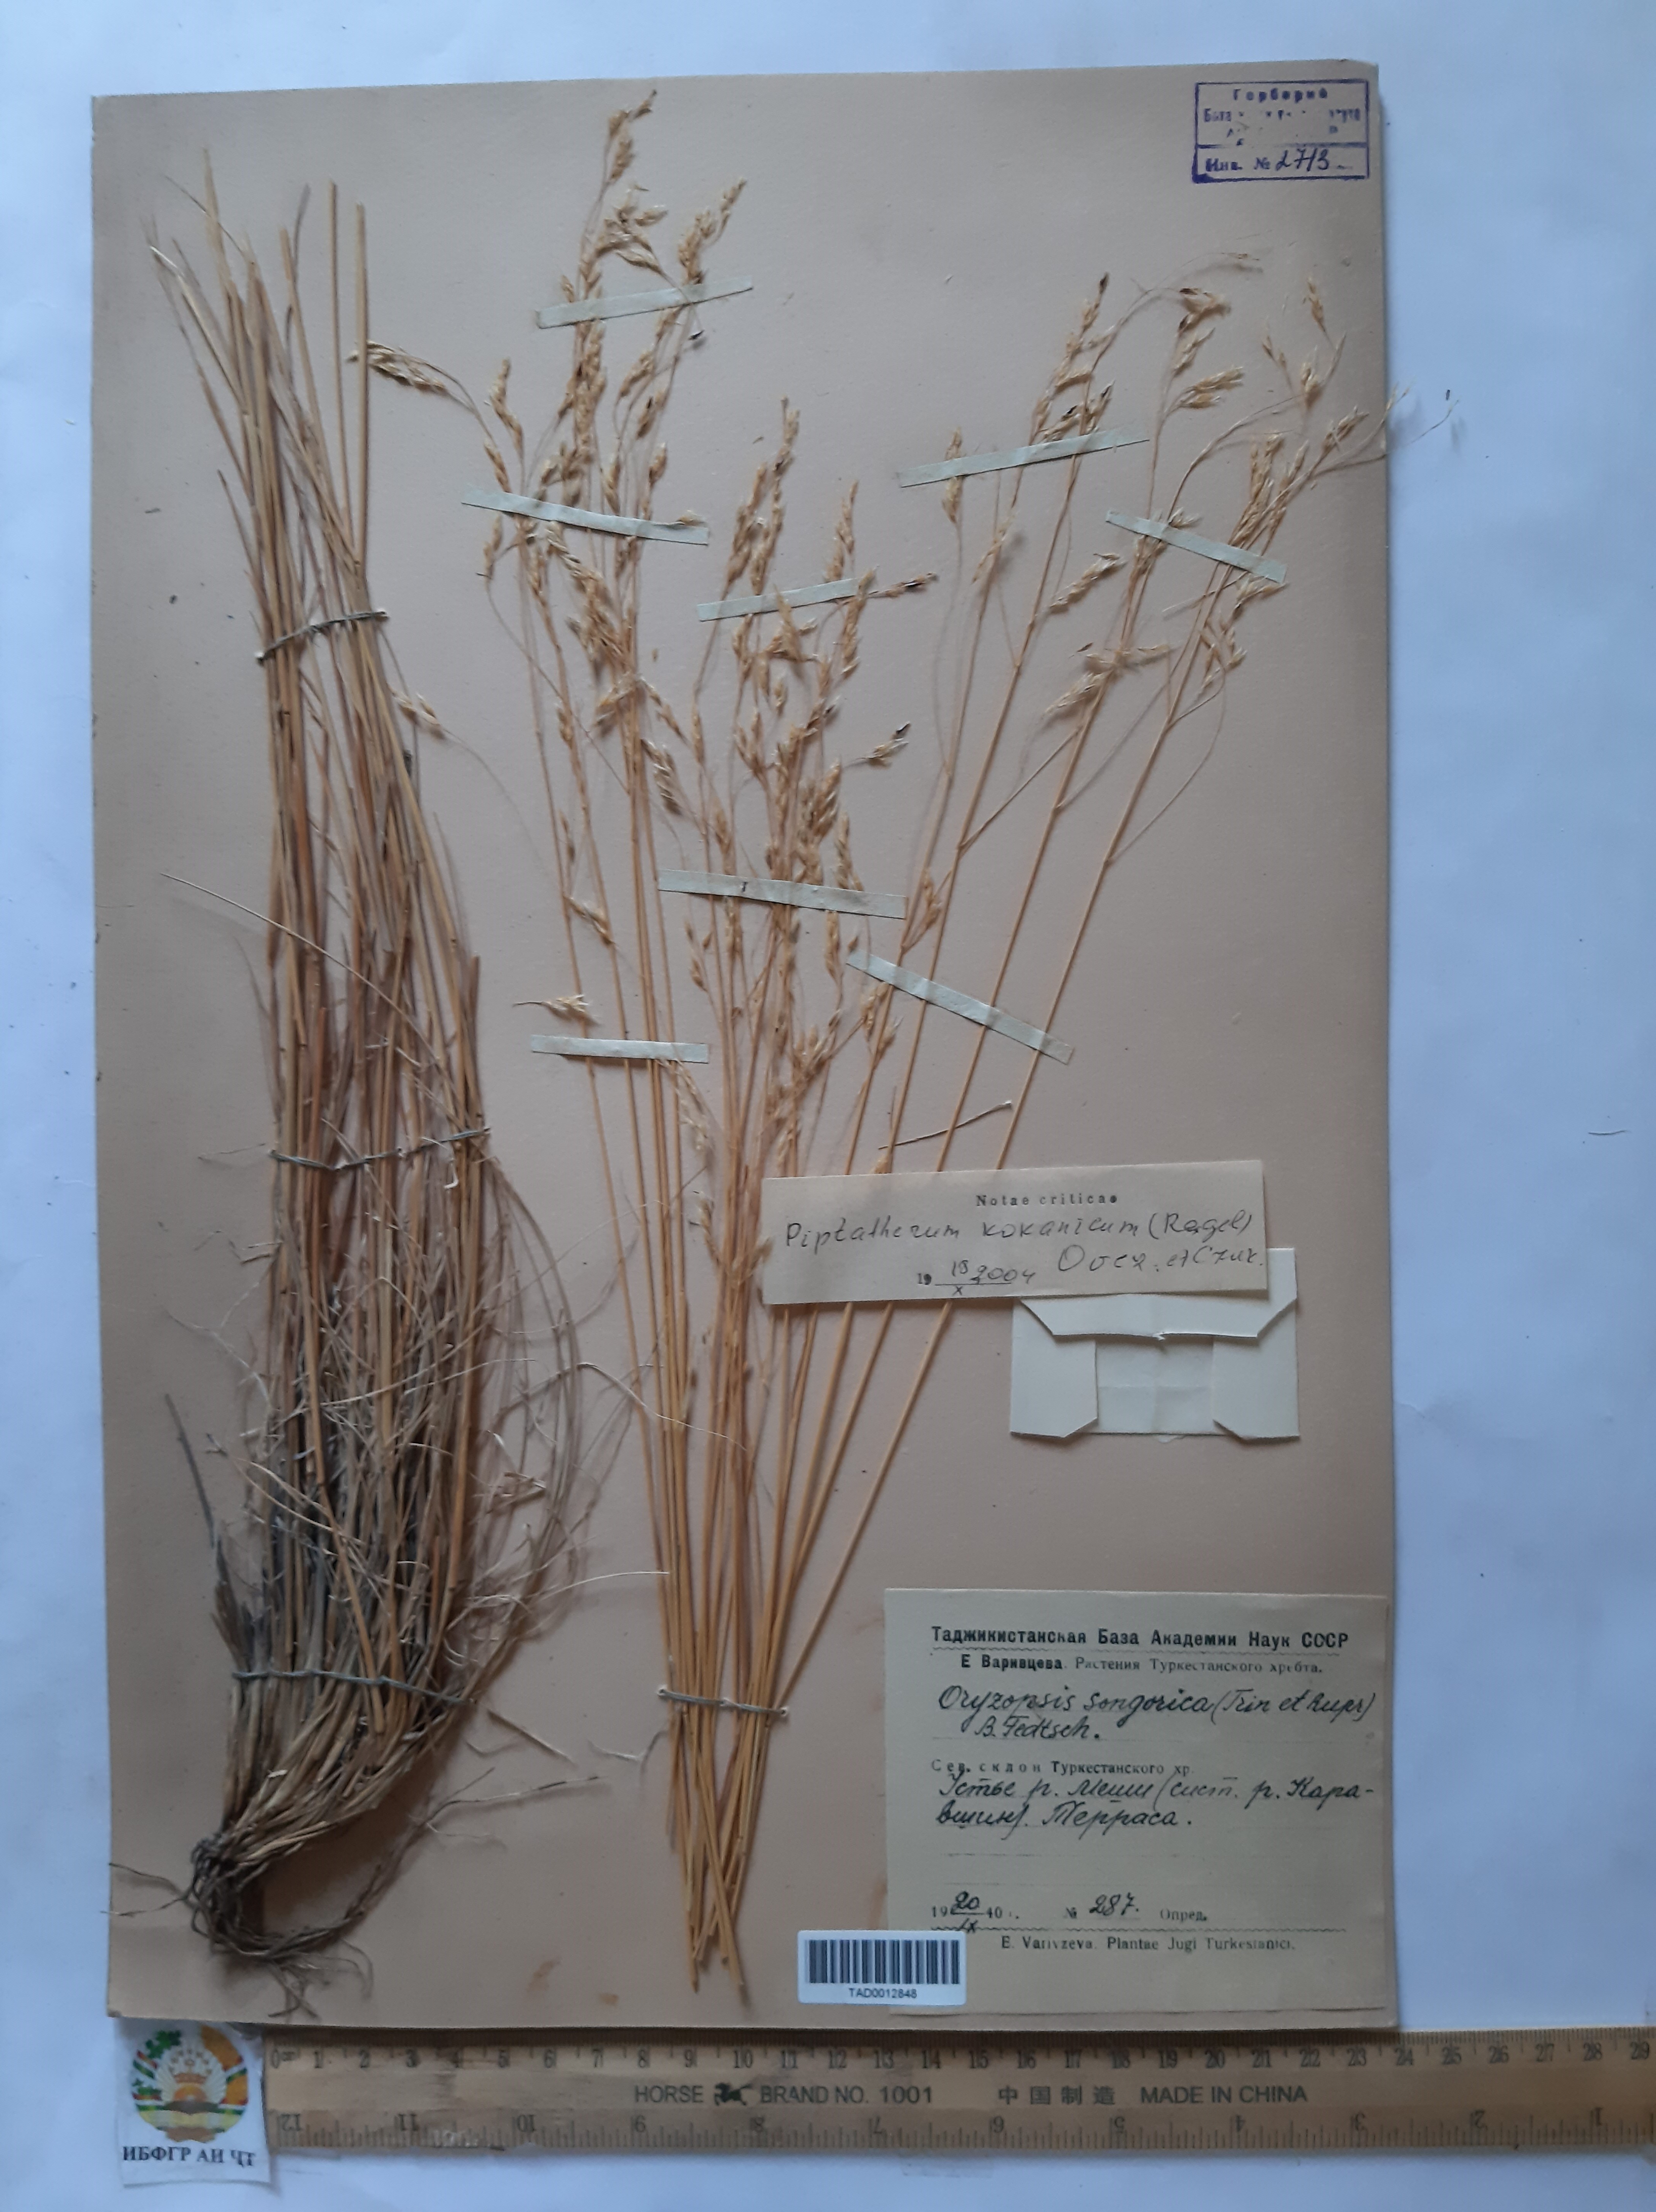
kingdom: Plantae
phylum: Tracheophyta
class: Liliopsida
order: Poales
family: Poaceae
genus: Piptatherum
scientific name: Piptatherum songaricum
